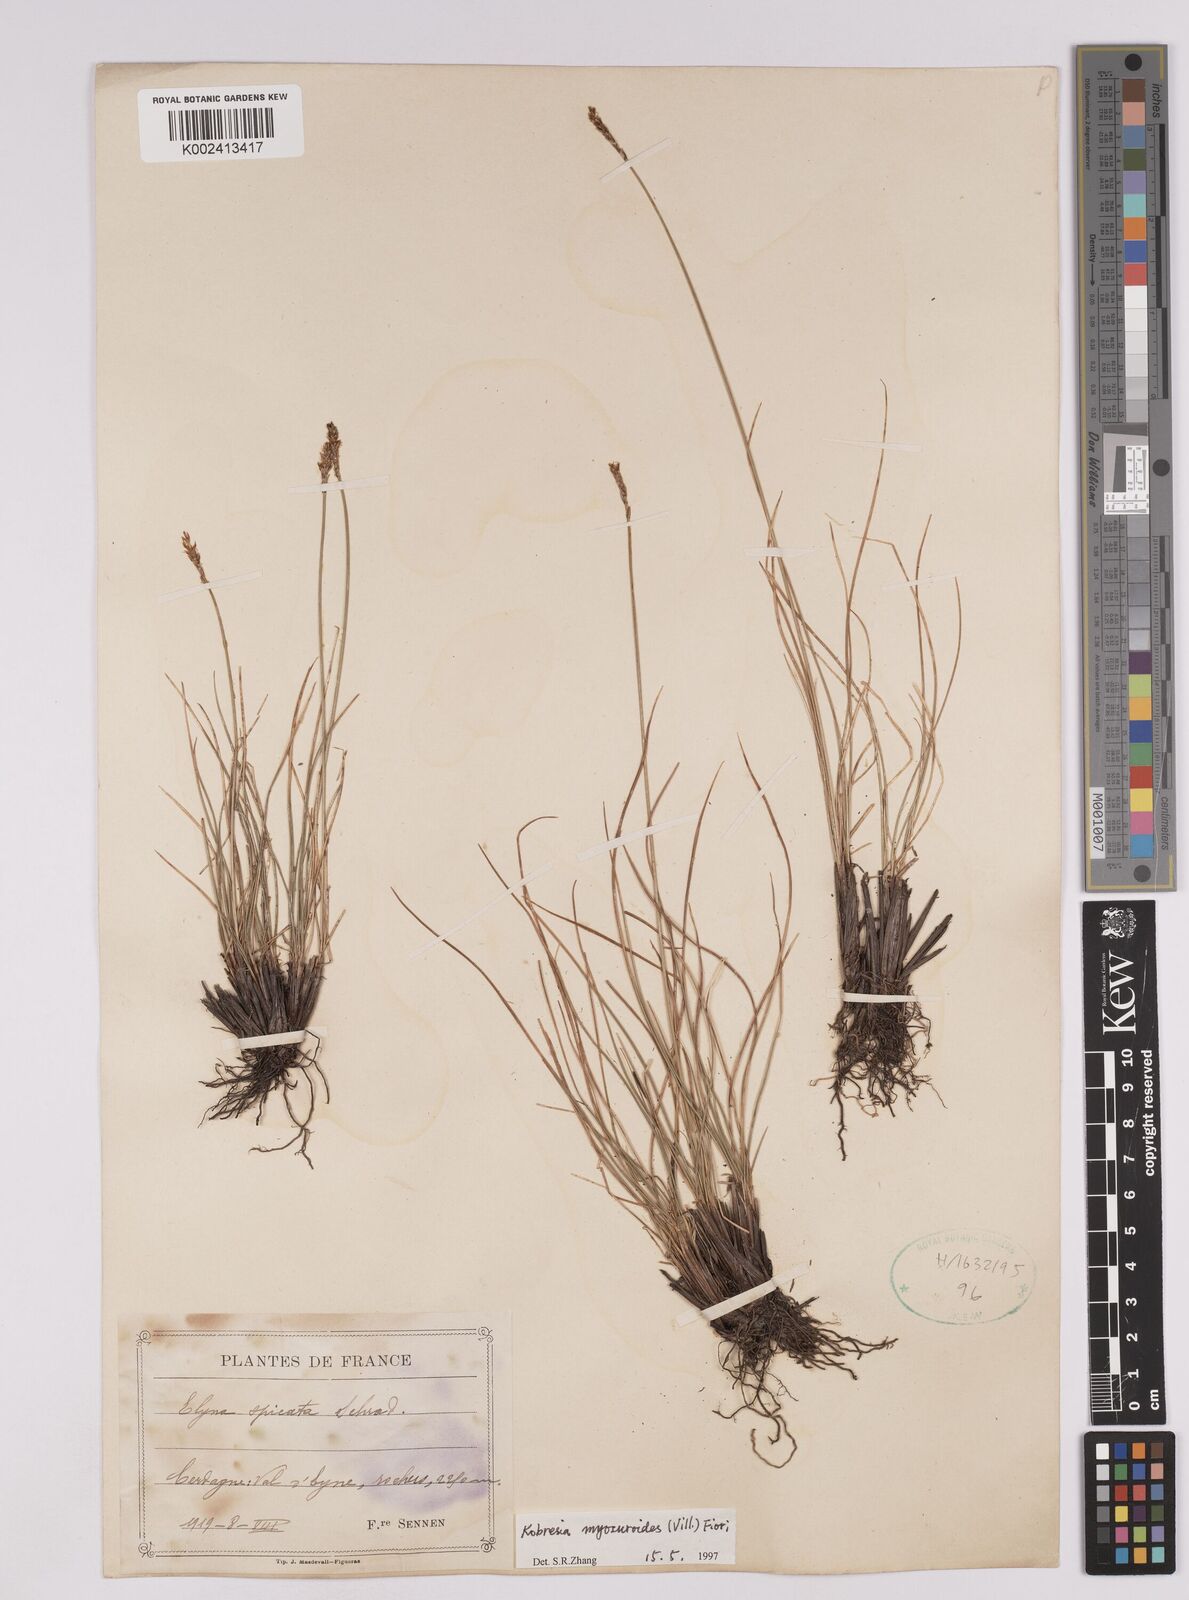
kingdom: Plantae
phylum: Tracheophyta
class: Liliopsida
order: Poales
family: Cyperaceae
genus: Carex
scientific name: Carex myosuroides
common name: Bellard's bog sedge
